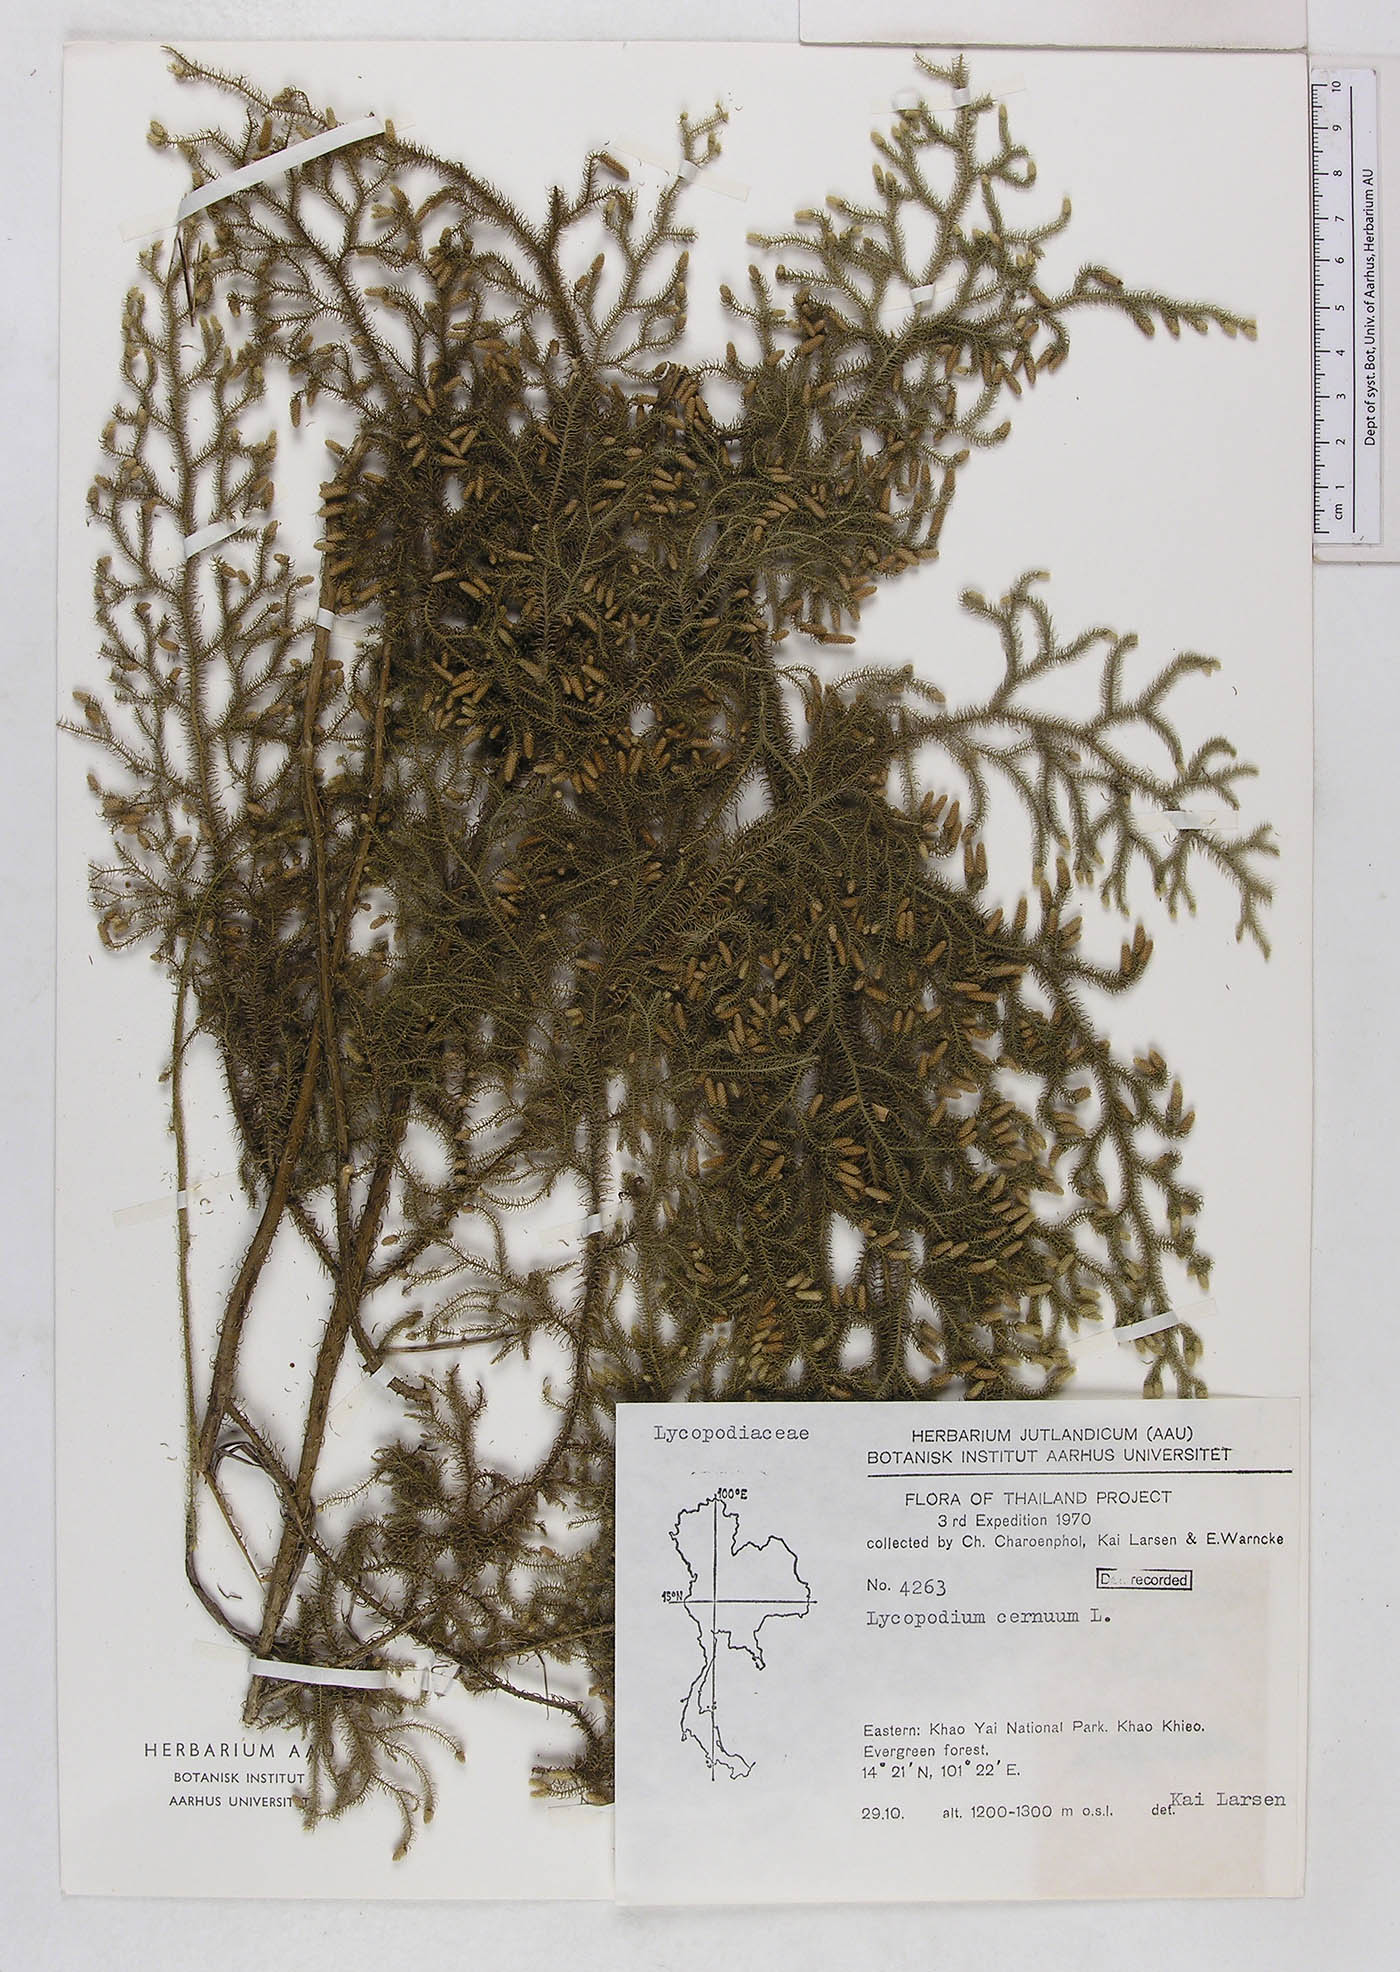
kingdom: Plantae
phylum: Tracheophyta
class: Lycopodiopsida
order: Lycopodiales
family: Lycopodiaceae
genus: Palhinhaea
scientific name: Palhinhaea cernua
